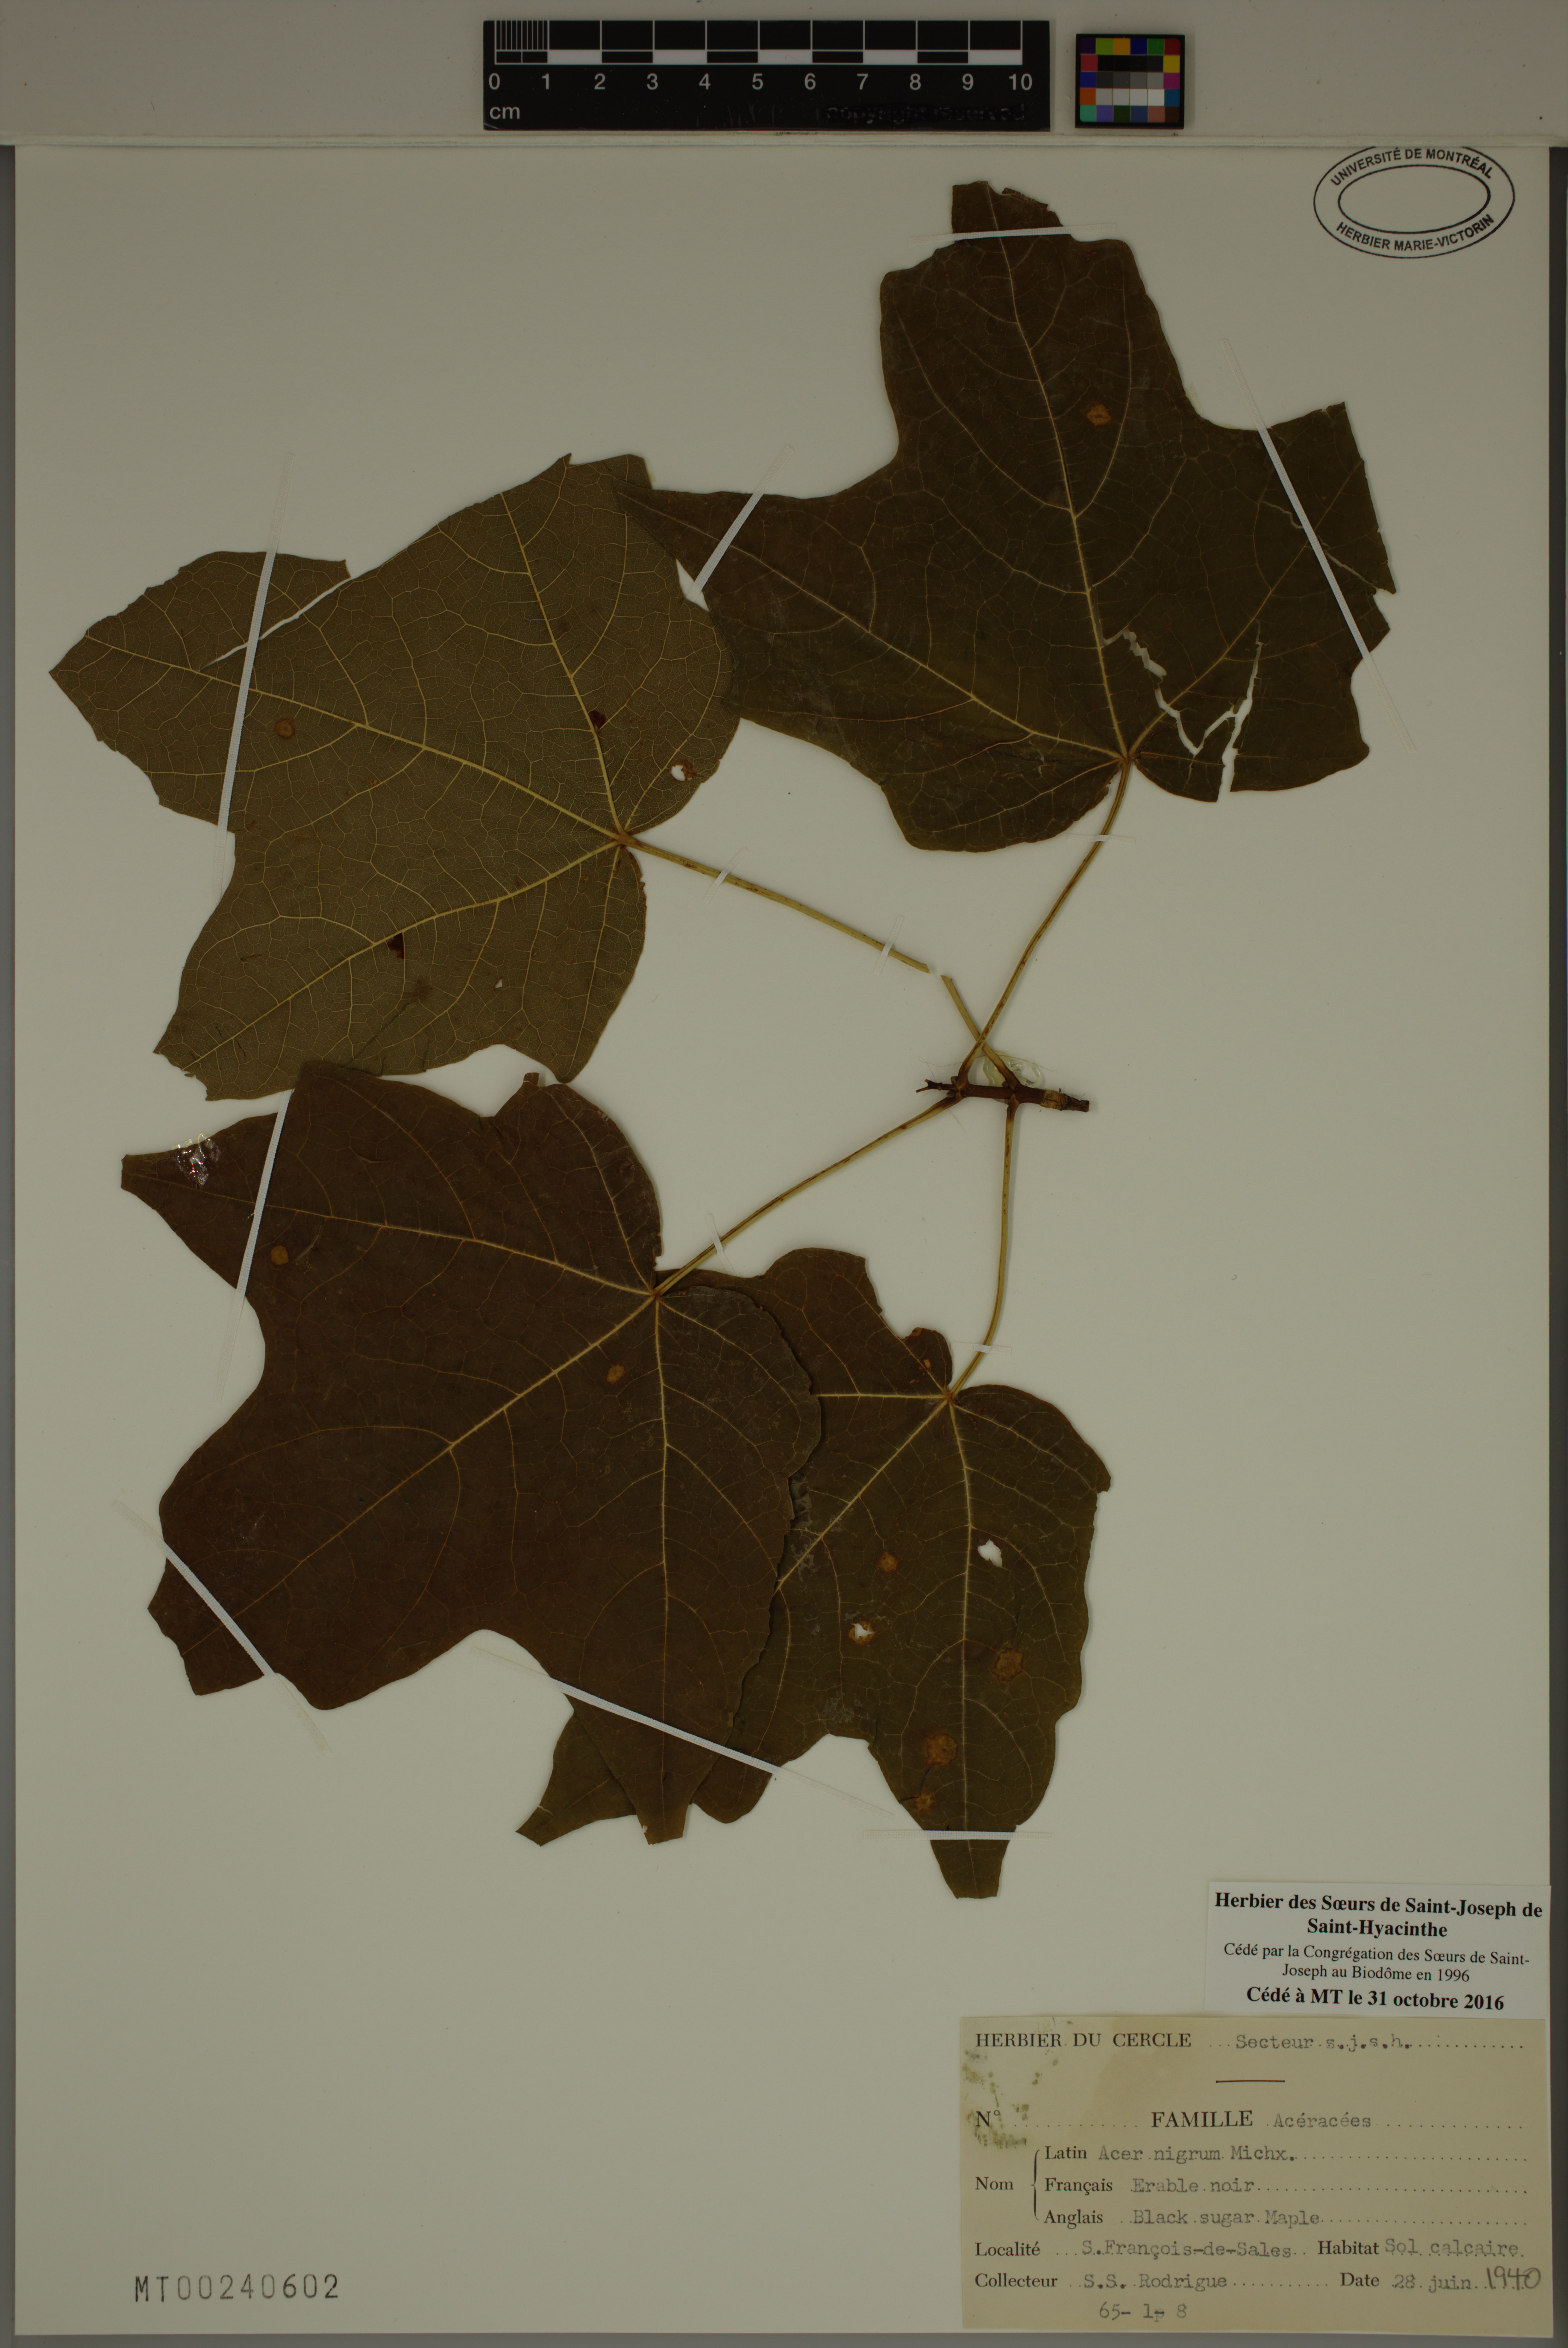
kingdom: Plantae
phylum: Tracheophyta
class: Magnoliopsida
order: Sapindales
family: Sapindaceae
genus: Acer
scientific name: Acer nigrum
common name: Black maple
